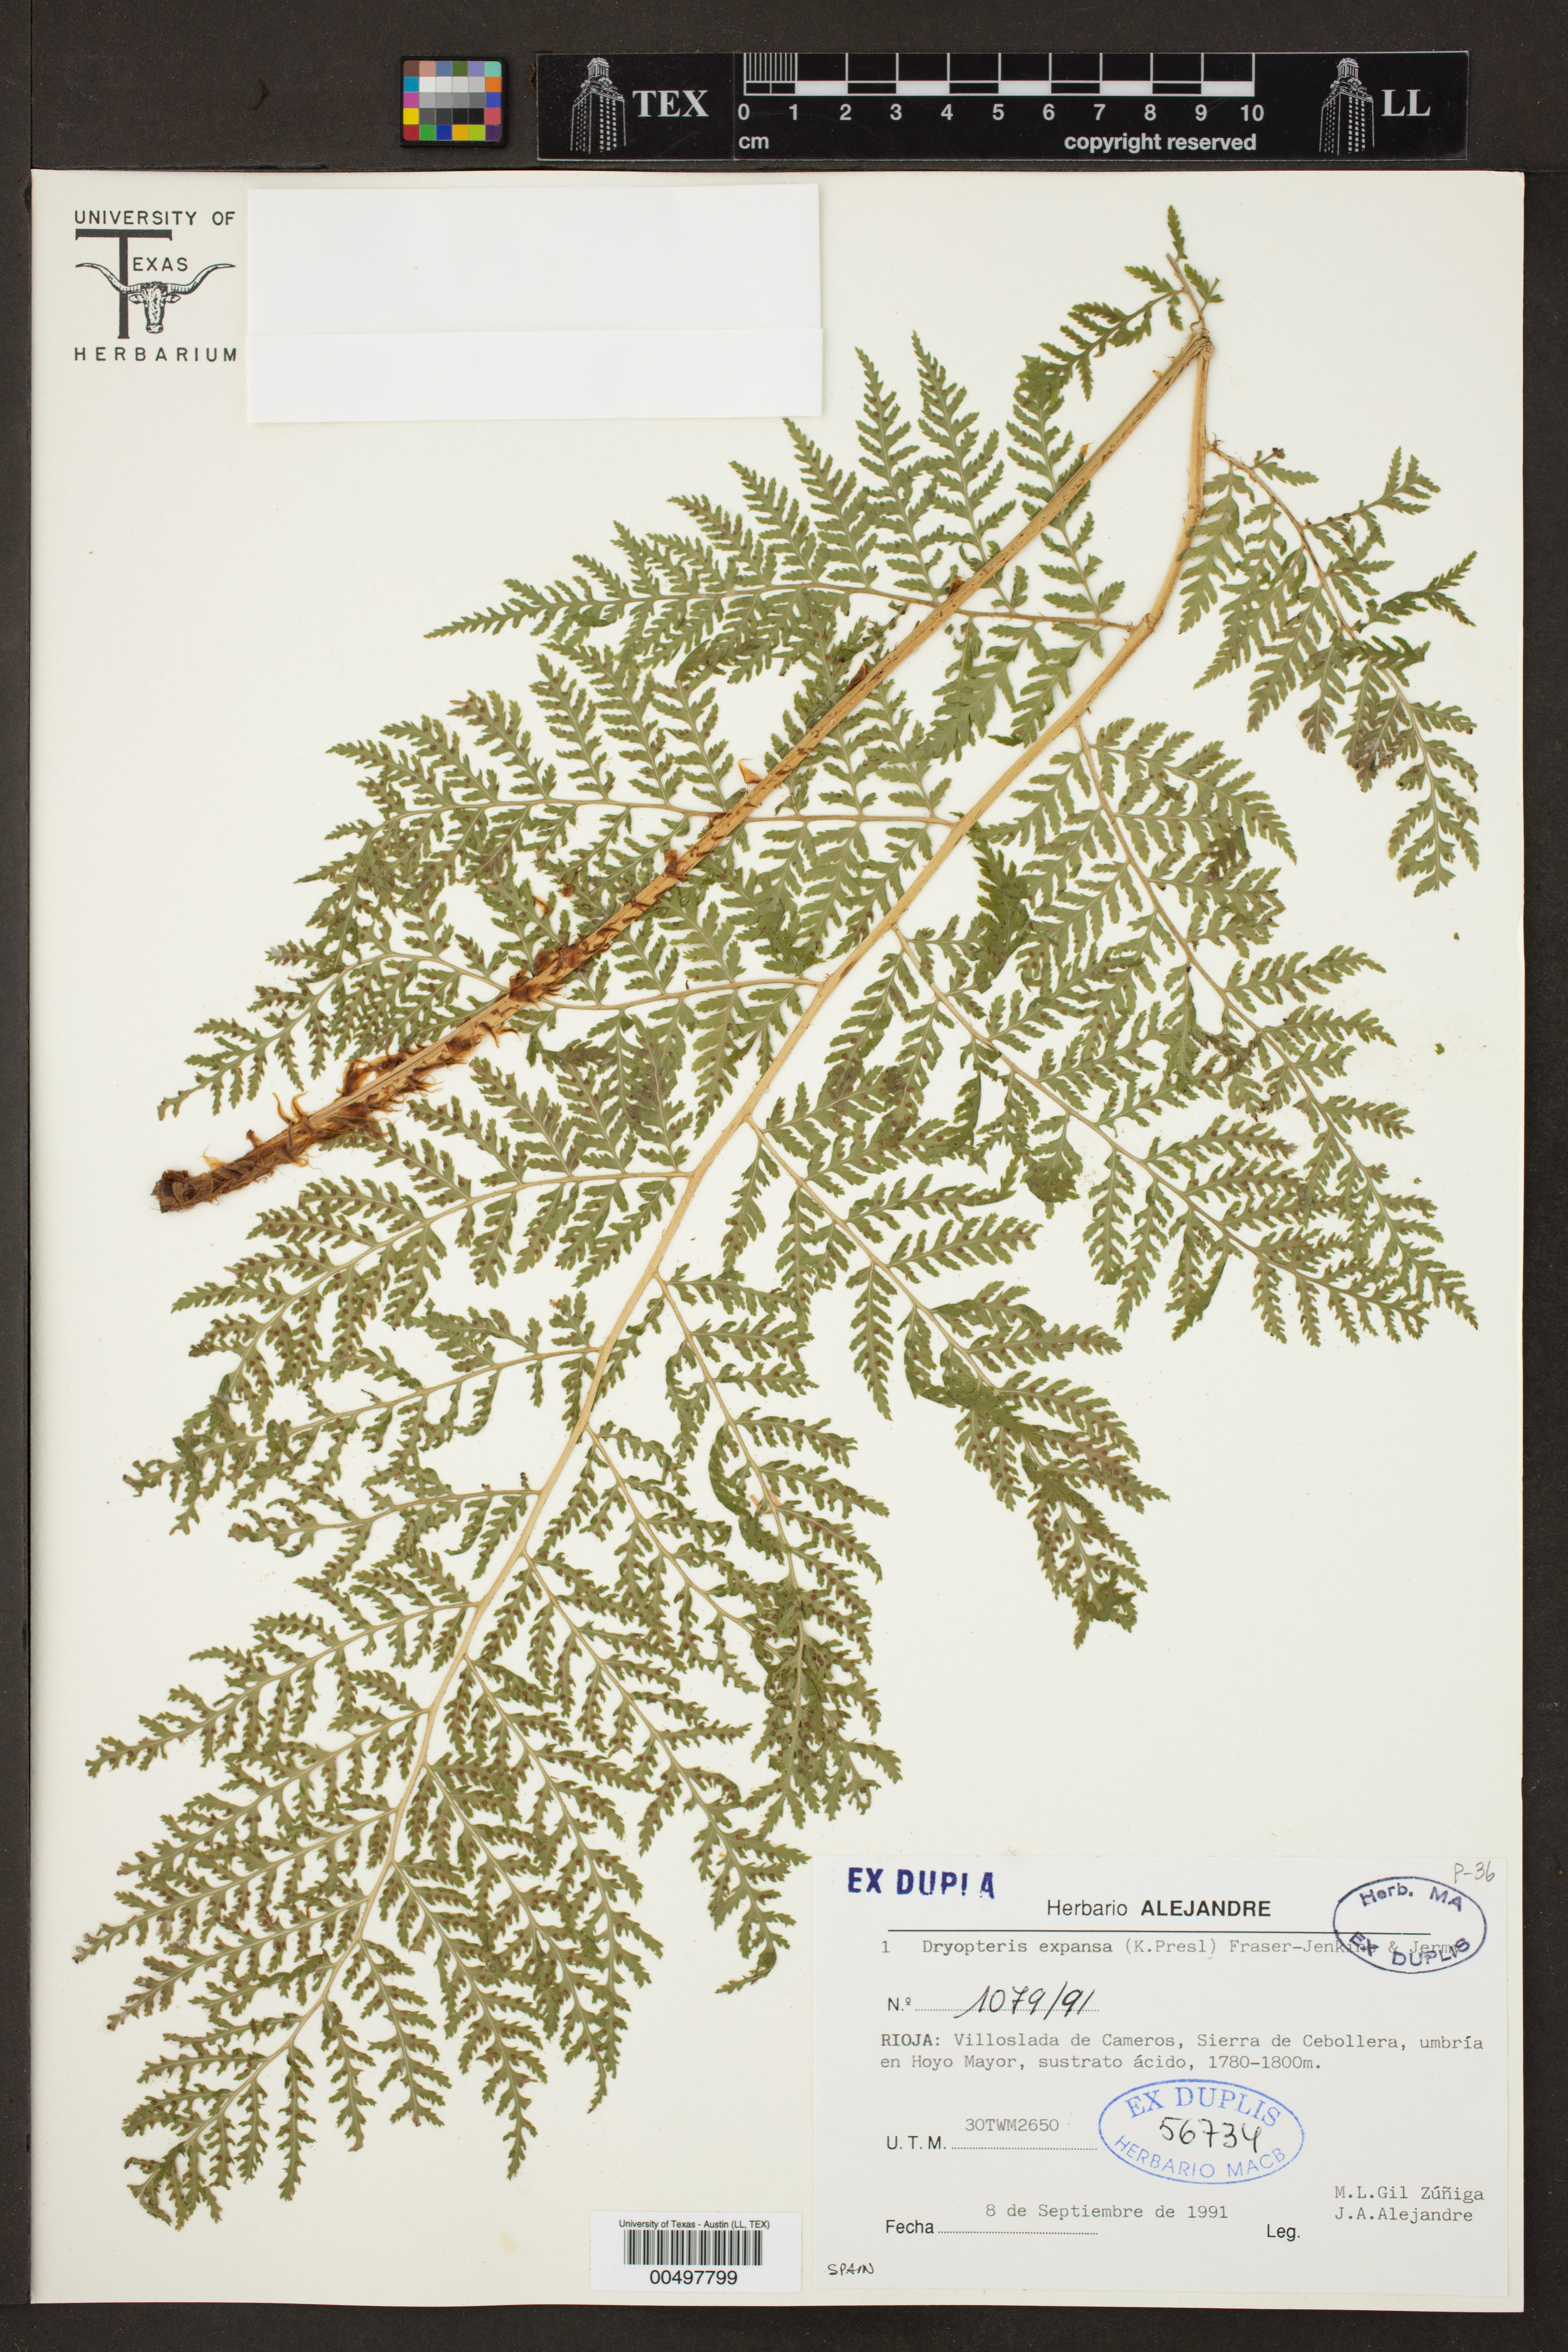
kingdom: Plantae
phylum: Tracheophyta
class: Polypodiopsida
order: Polypodiales
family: Dryopteridaceae
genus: Dryopteris
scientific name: Dryopteris expansa
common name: Northern buckler fern
